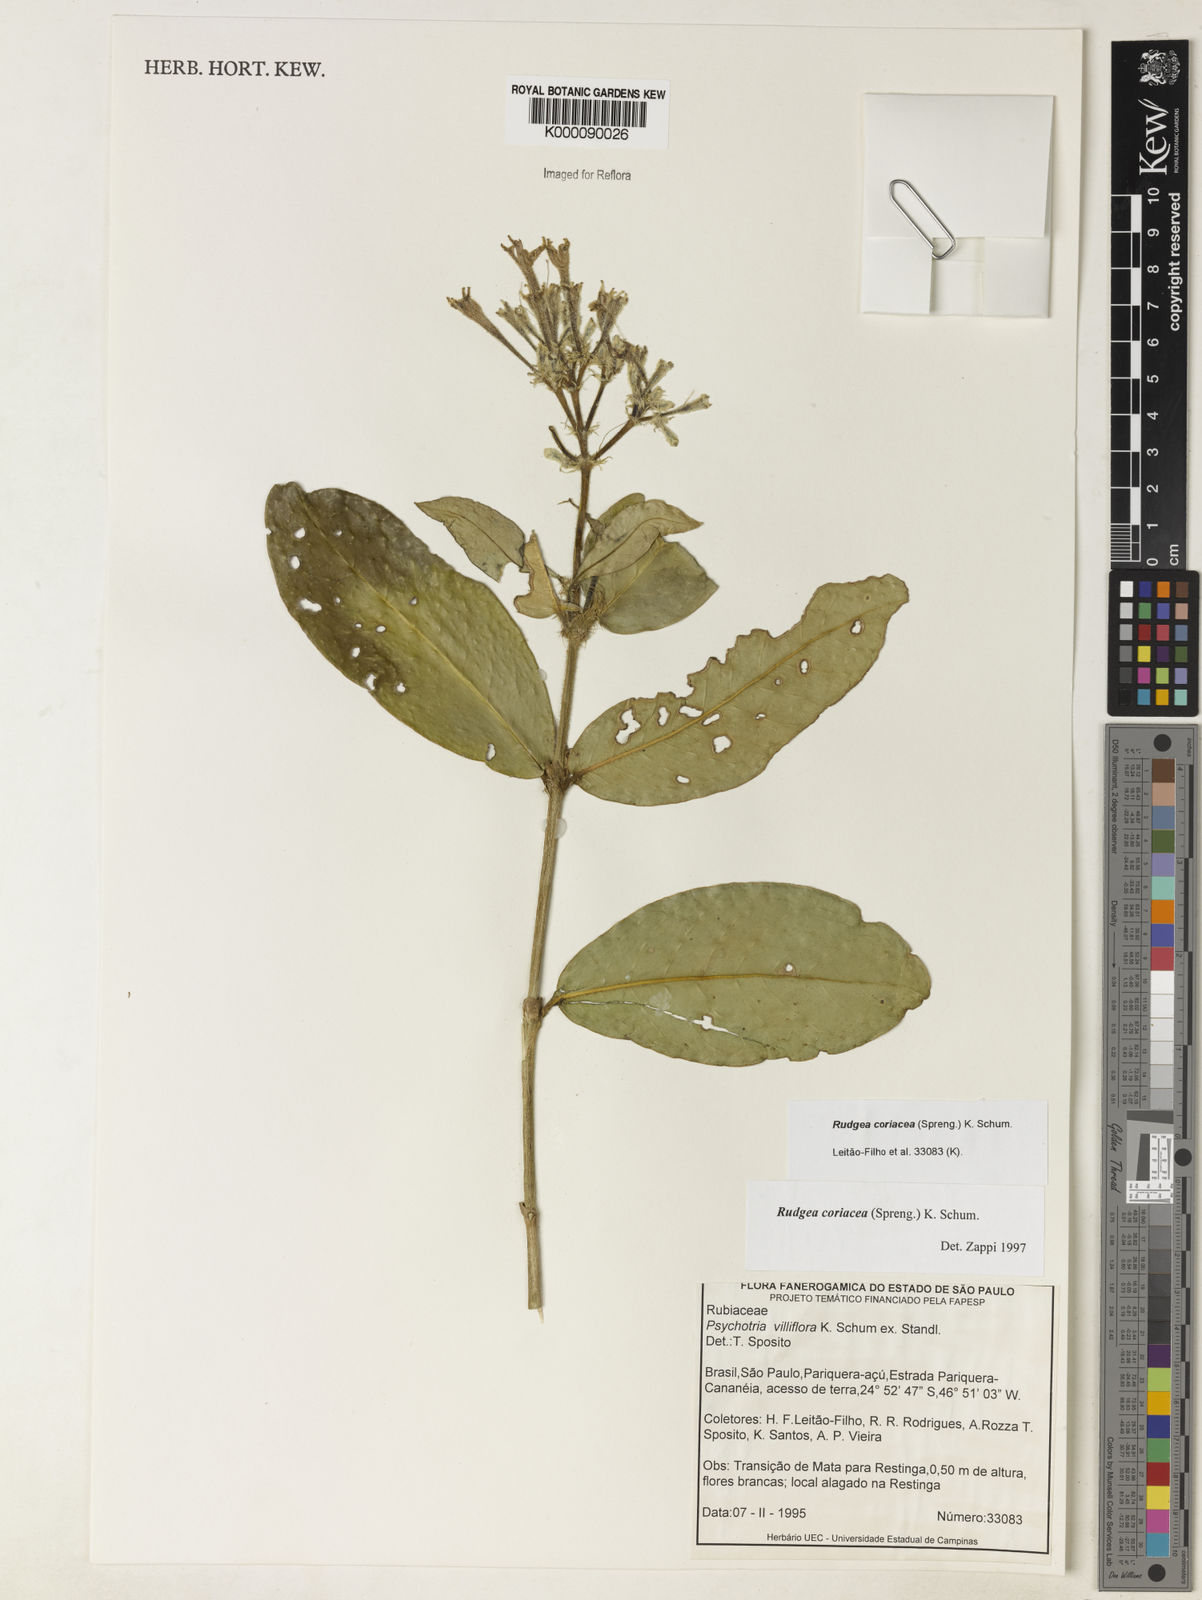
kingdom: Plantae
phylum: Tracheophyta
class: Magnoliopsida
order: Gentianales
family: Rubiaceae
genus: Rudgea
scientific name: Rudgea coriacea
